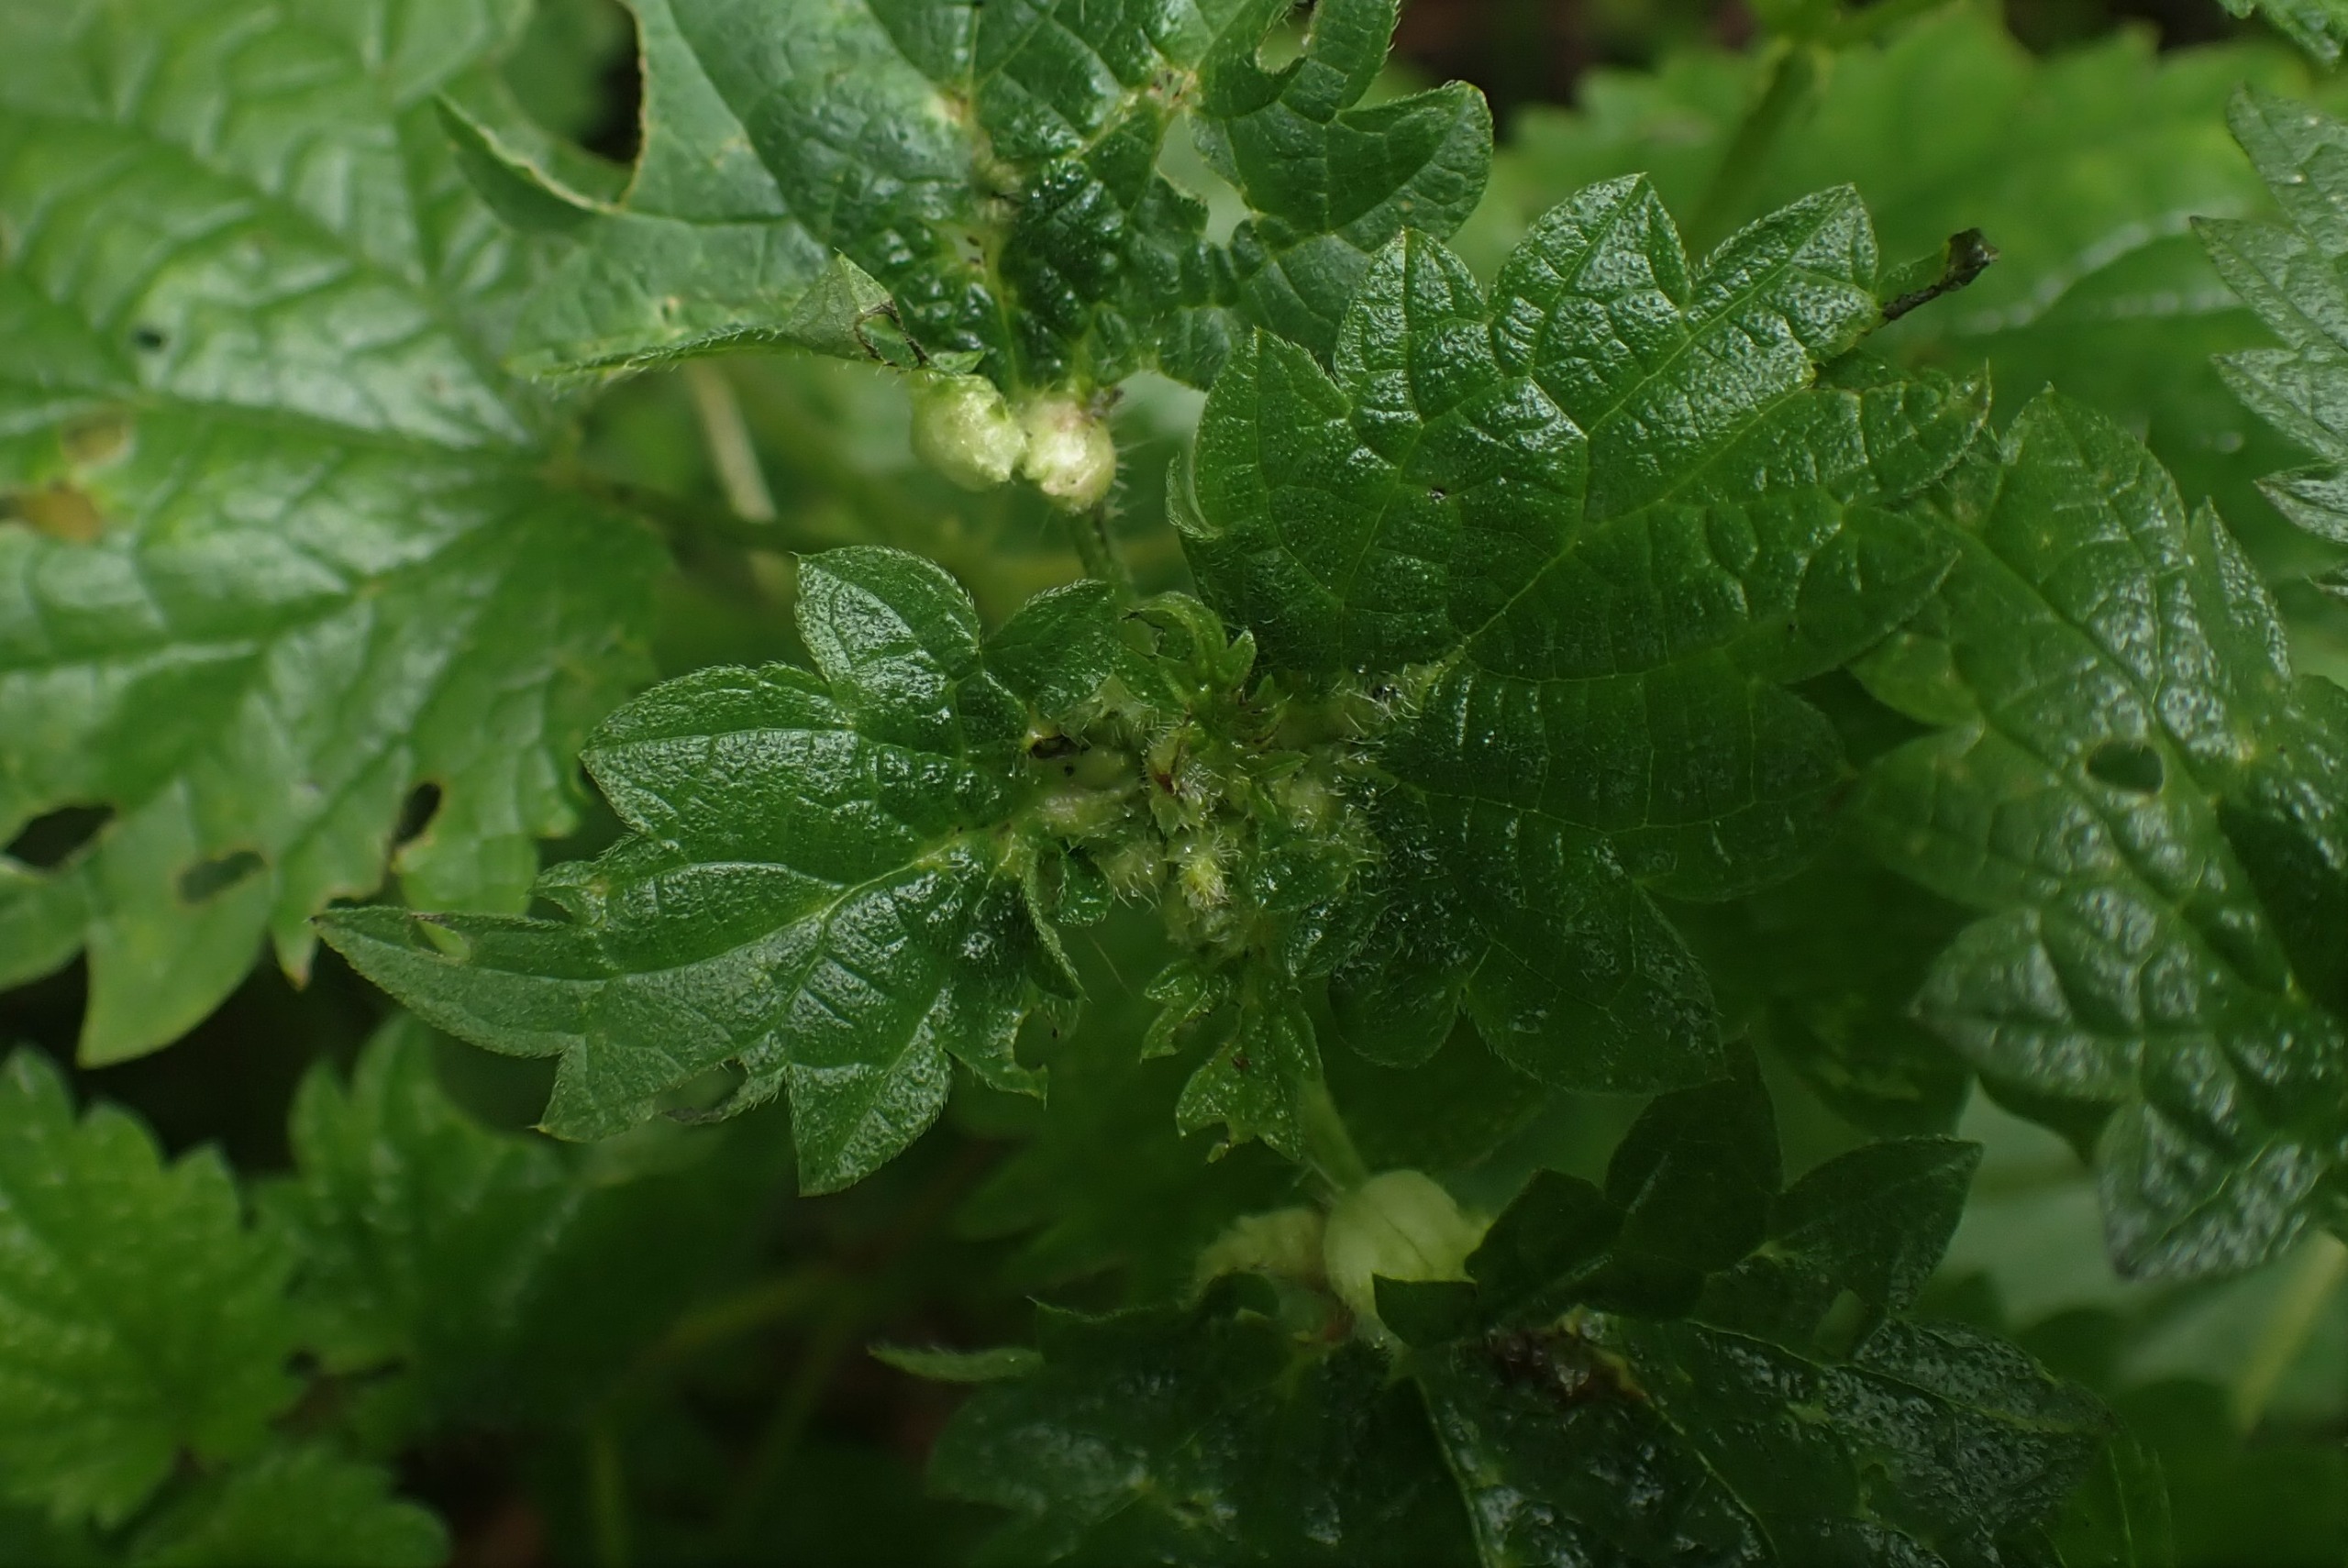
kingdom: Animalia
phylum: Arthropoda
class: Insecta
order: Diptera
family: Cecidomyiidae
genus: Dasineura
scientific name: Dasineura urticae
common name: Nældepunggalmyg
